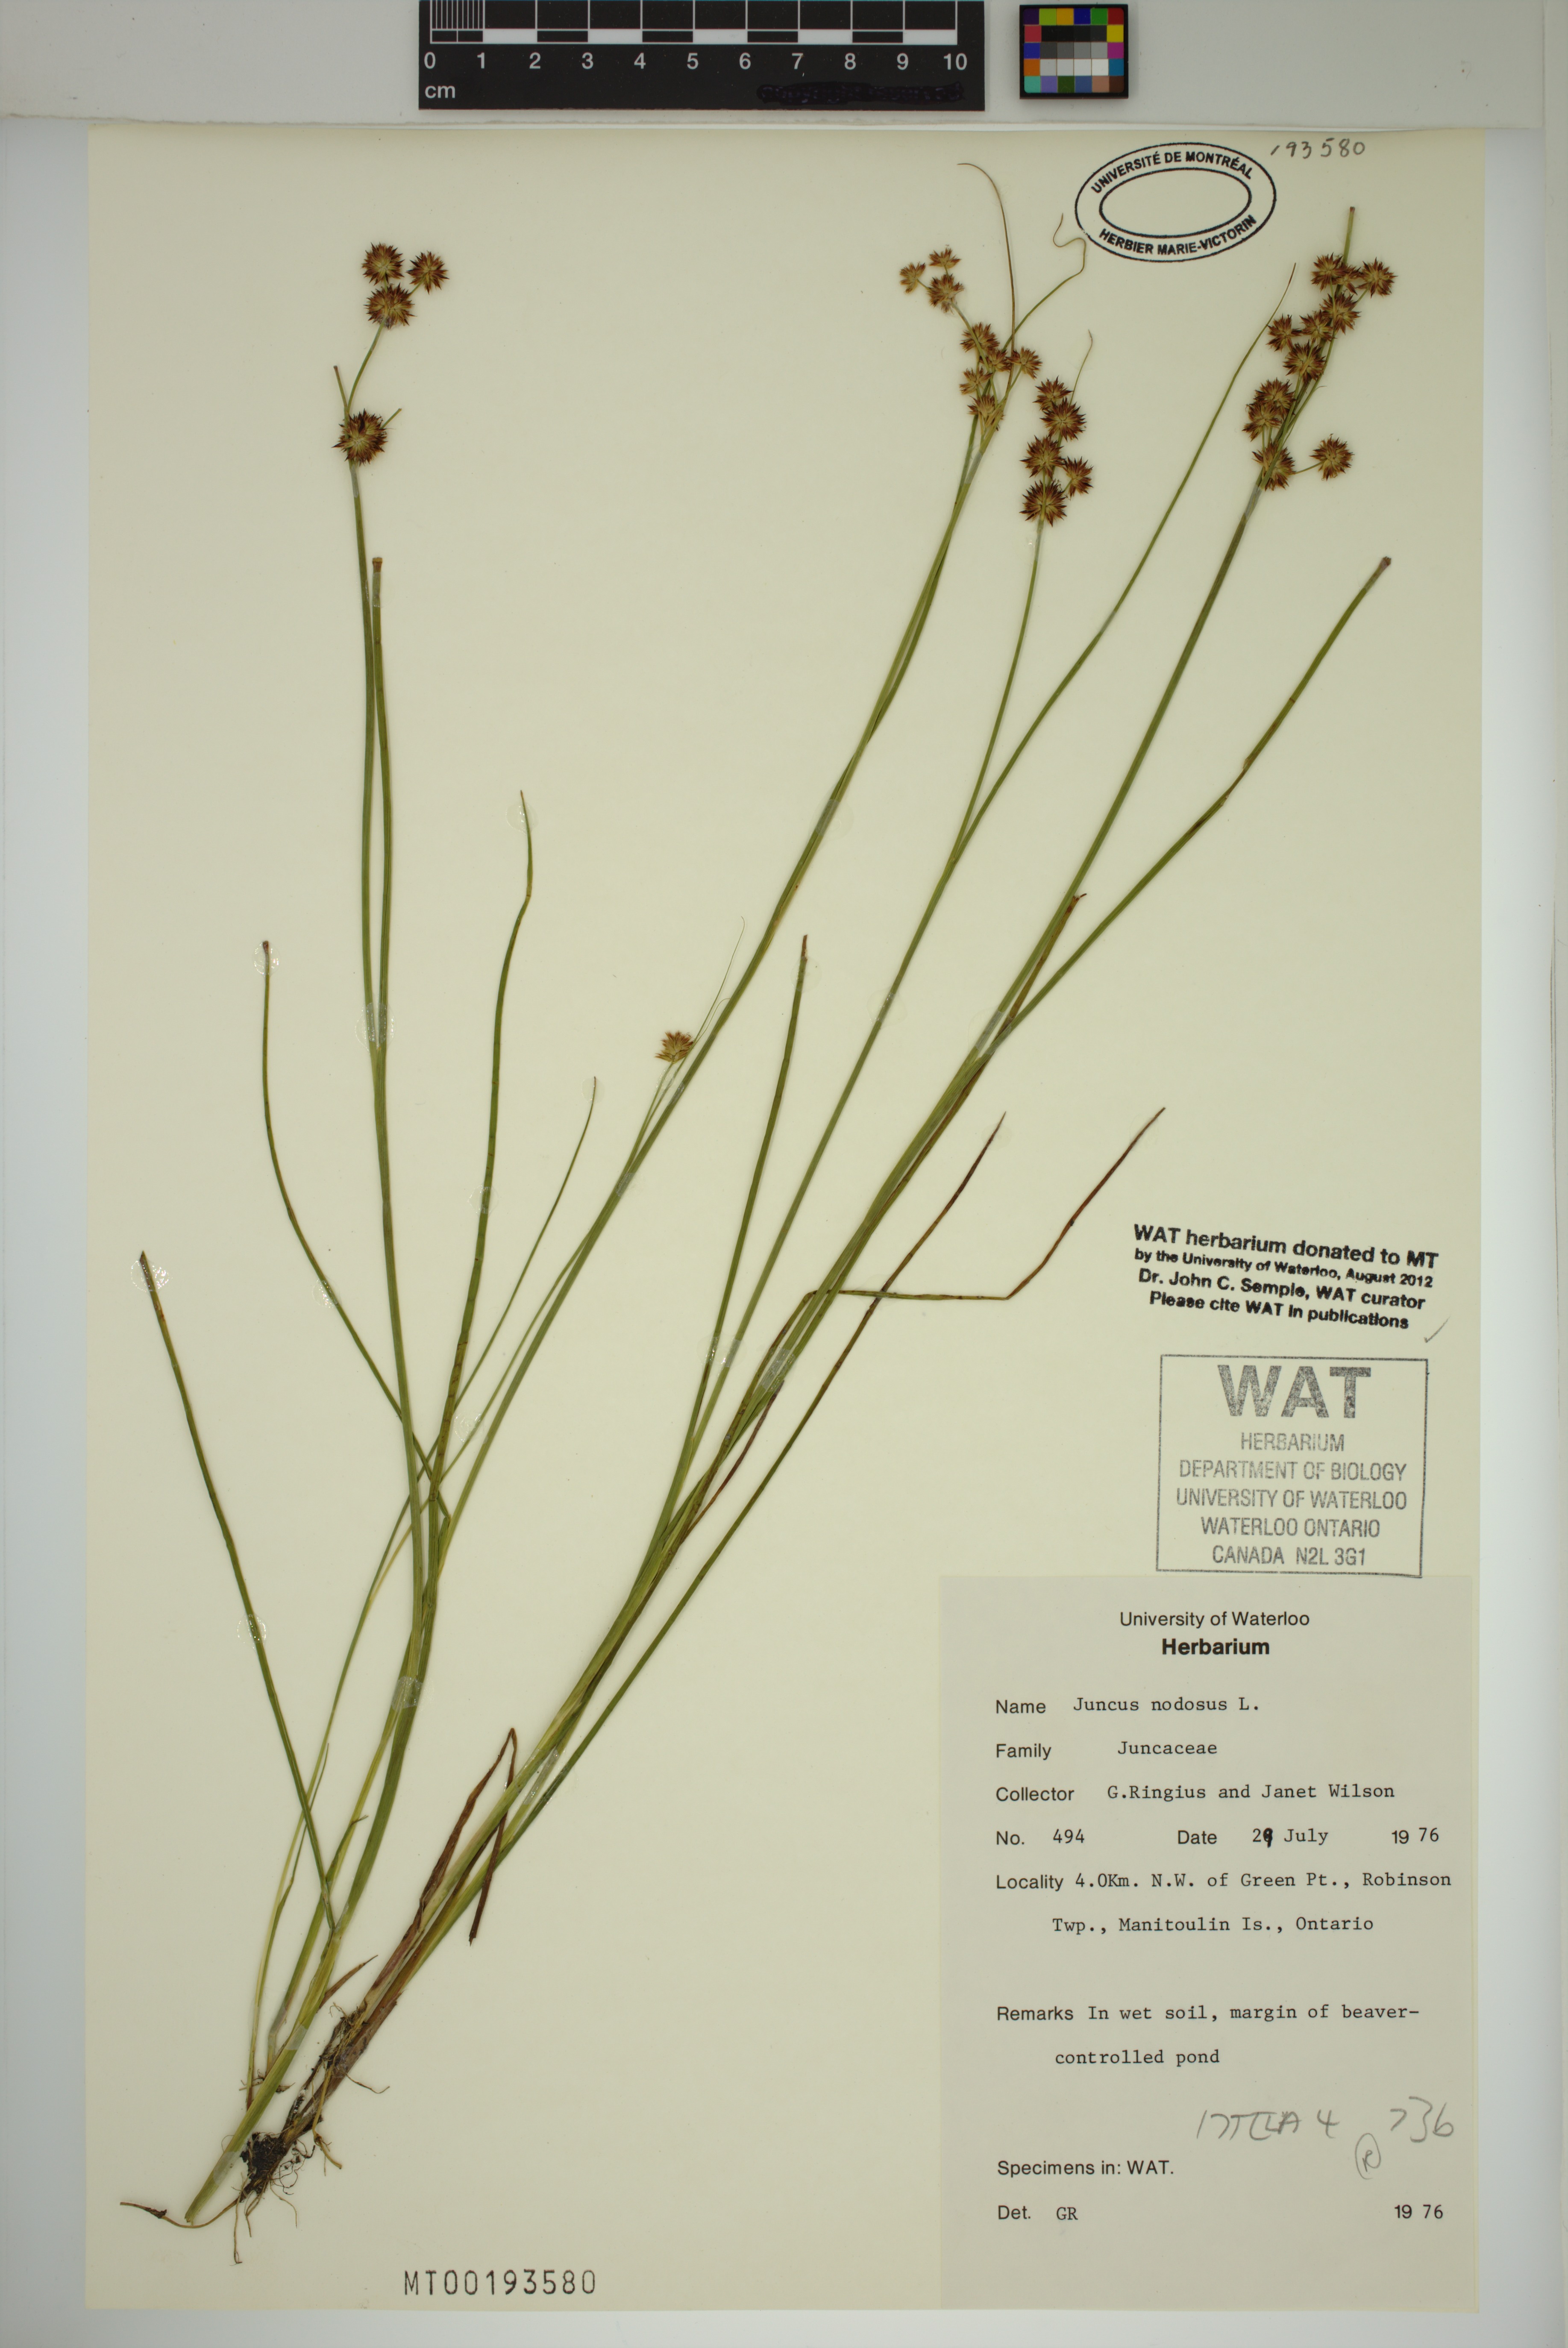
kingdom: Plantae
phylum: Tracheophyta
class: Liliopsida
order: Poales
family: Juncaceae
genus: Juncus
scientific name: Juncus nodosus
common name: Knotted rush
